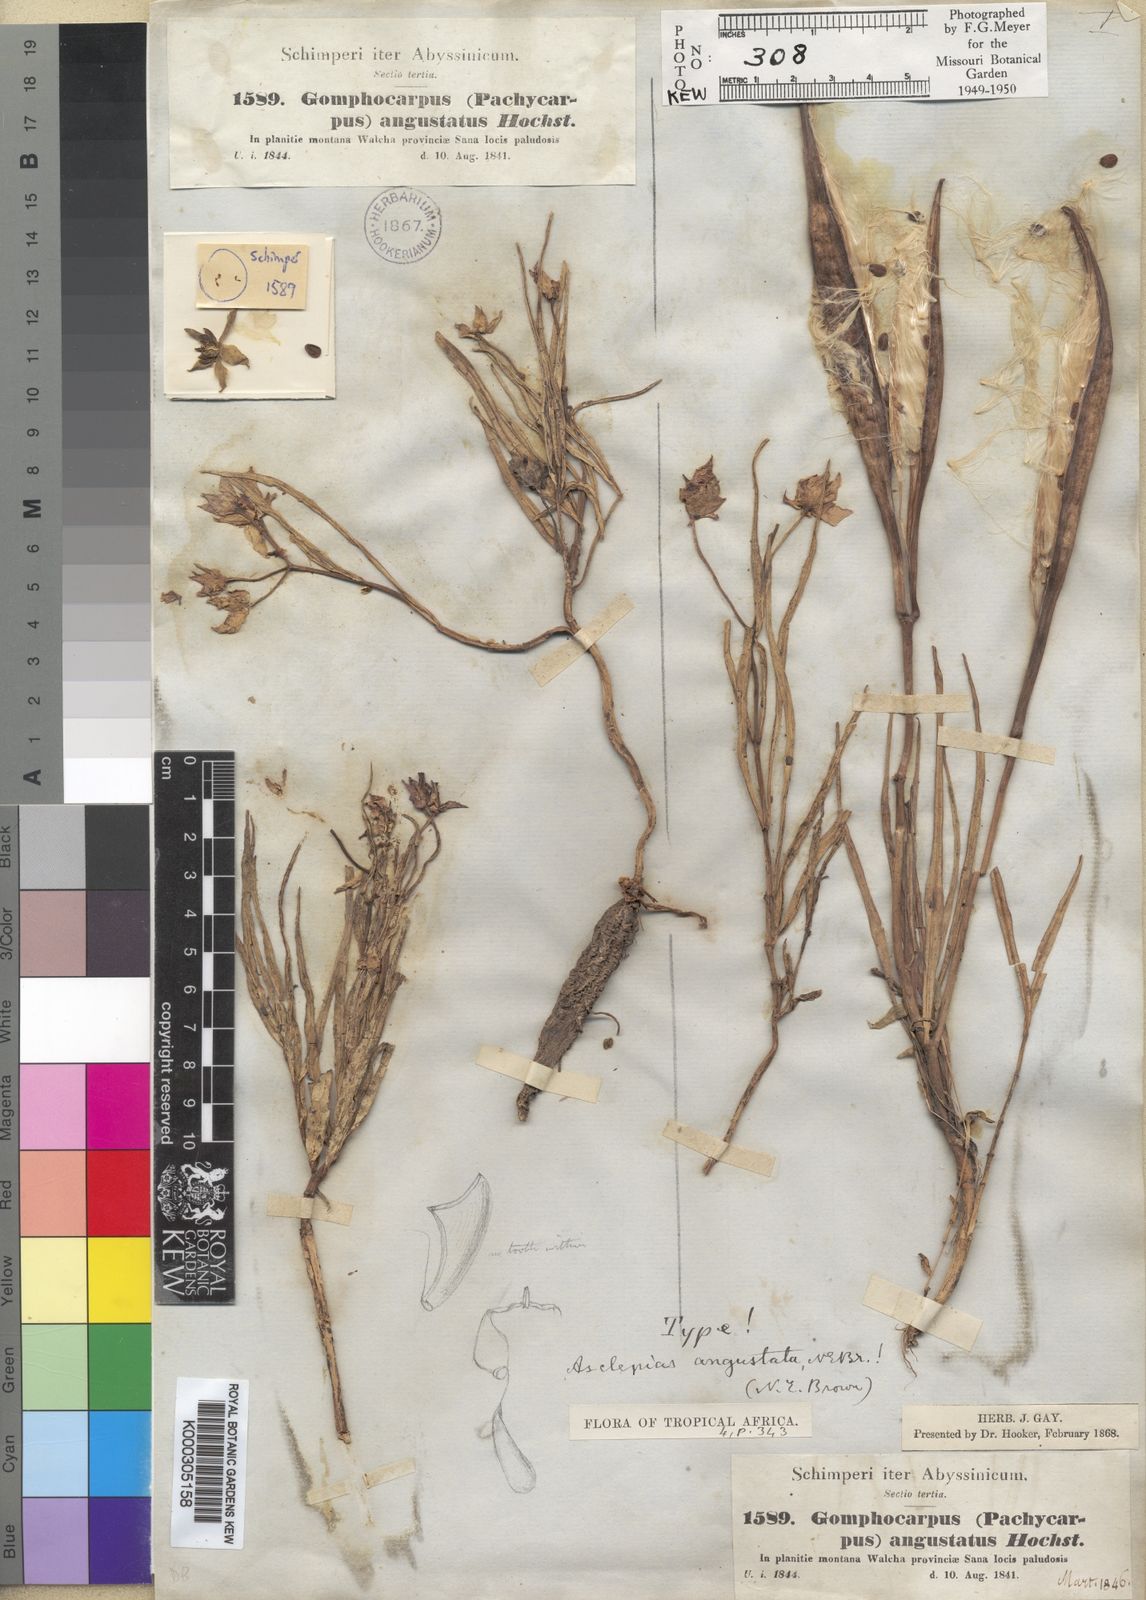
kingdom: Plantae
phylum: Tracheophyta
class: Magnoliopsida
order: Gentianales
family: Apocynaceae
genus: Stathmostelma
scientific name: Stathmostelma angustatum
